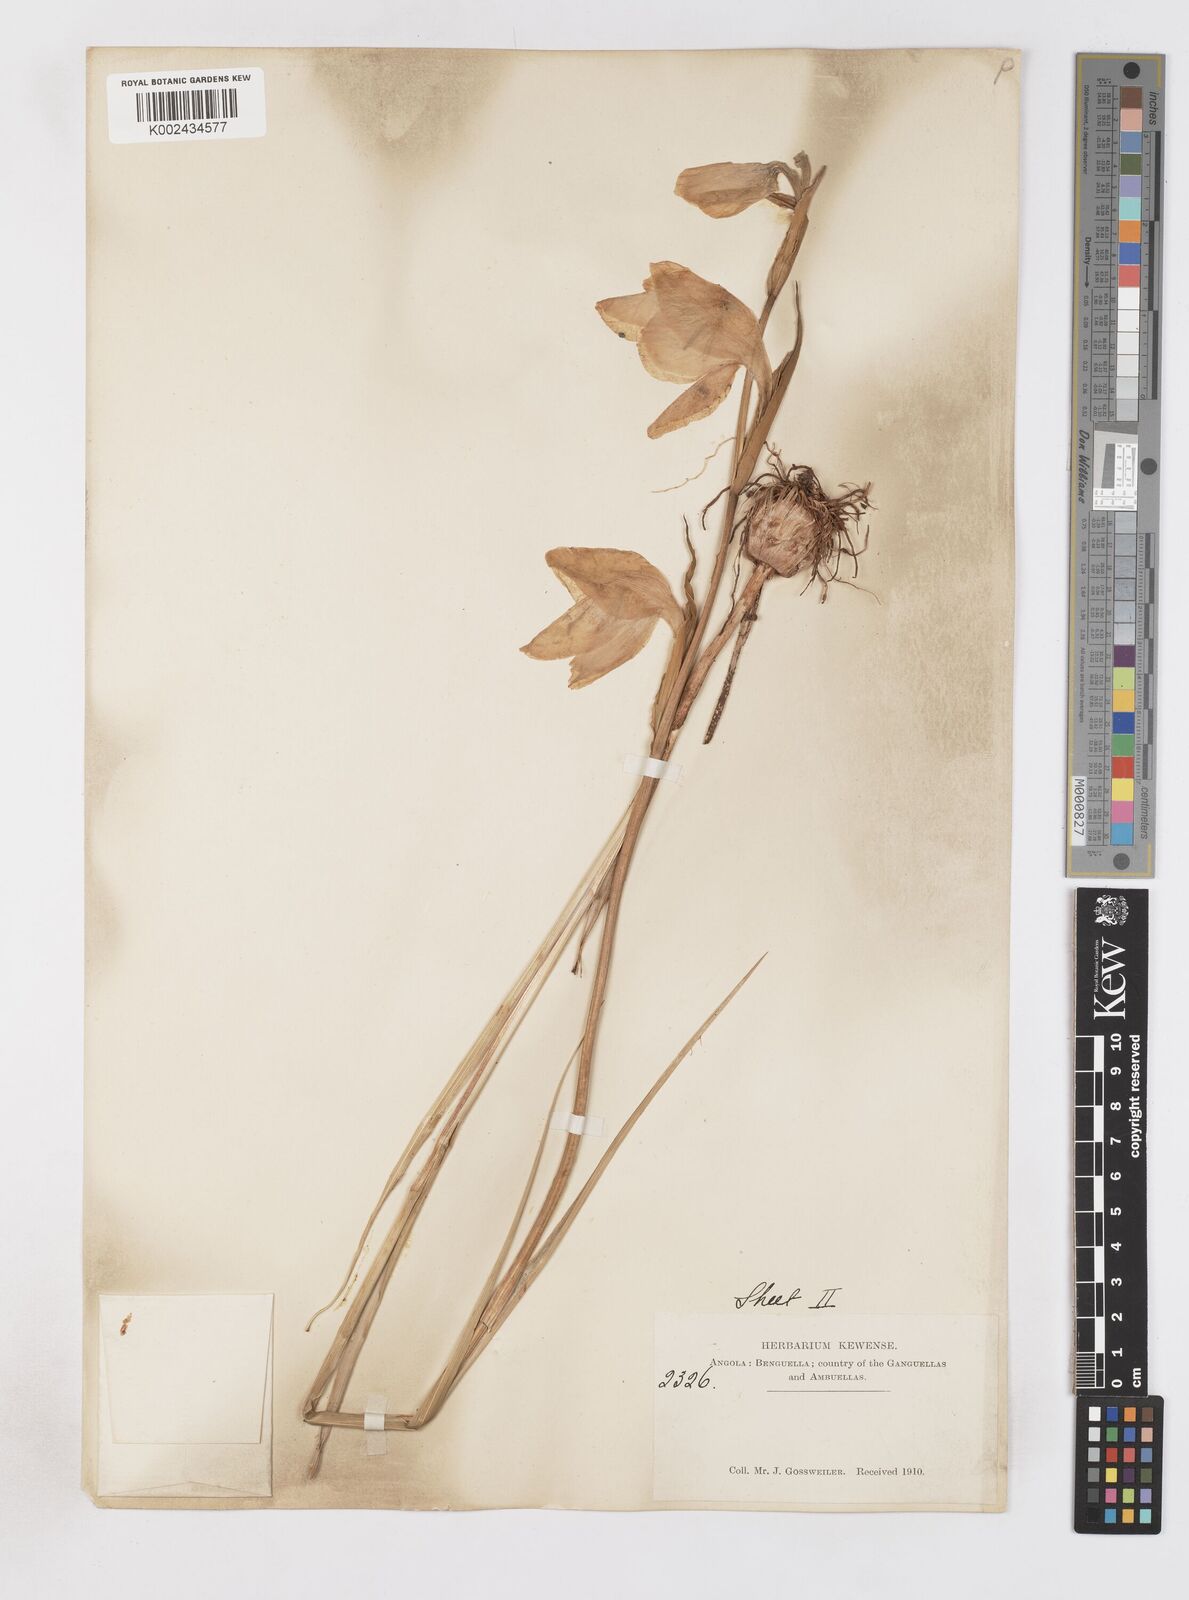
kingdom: Plantae
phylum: Tracheophyta
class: Liliopsida
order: Asparagales
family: Iridaceae
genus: Gladiolus
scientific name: Gladiolus
